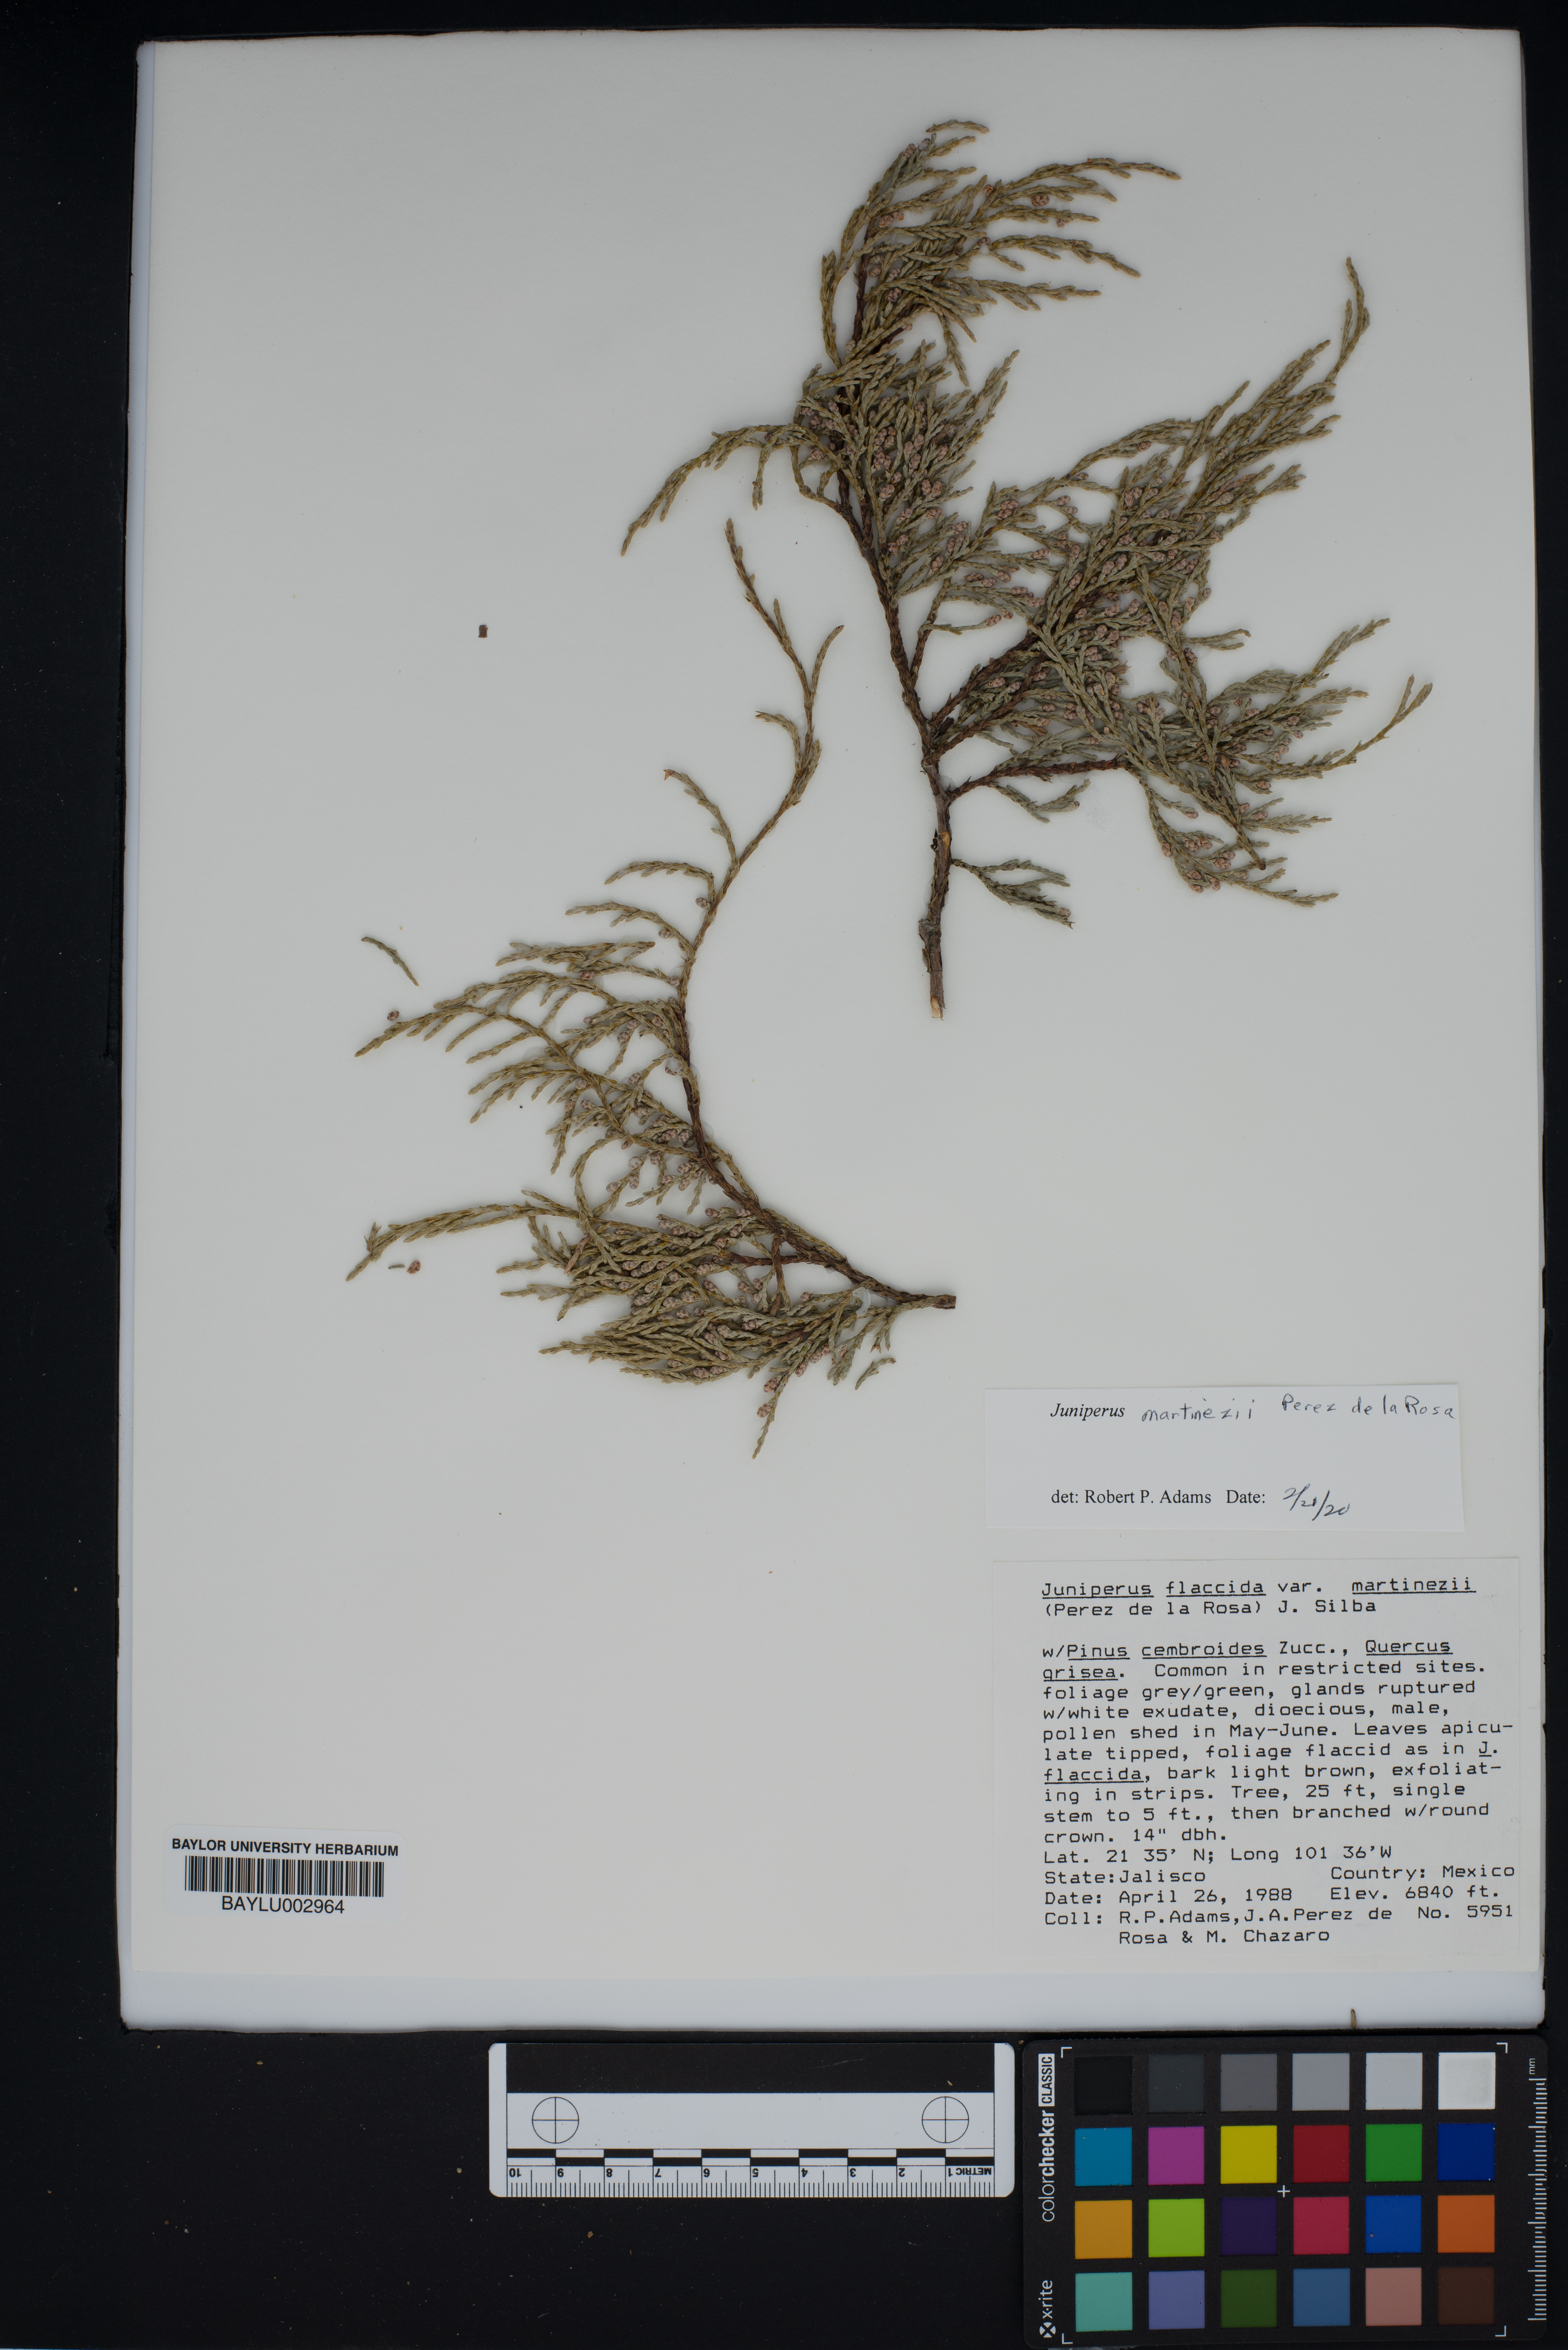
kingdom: Plantae
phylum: Tracheophyta
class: Pinopsida
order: Pinales
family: Cupressaceae
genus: Juniperus
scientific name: Juniperus flaccida
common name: Drooping juniper
